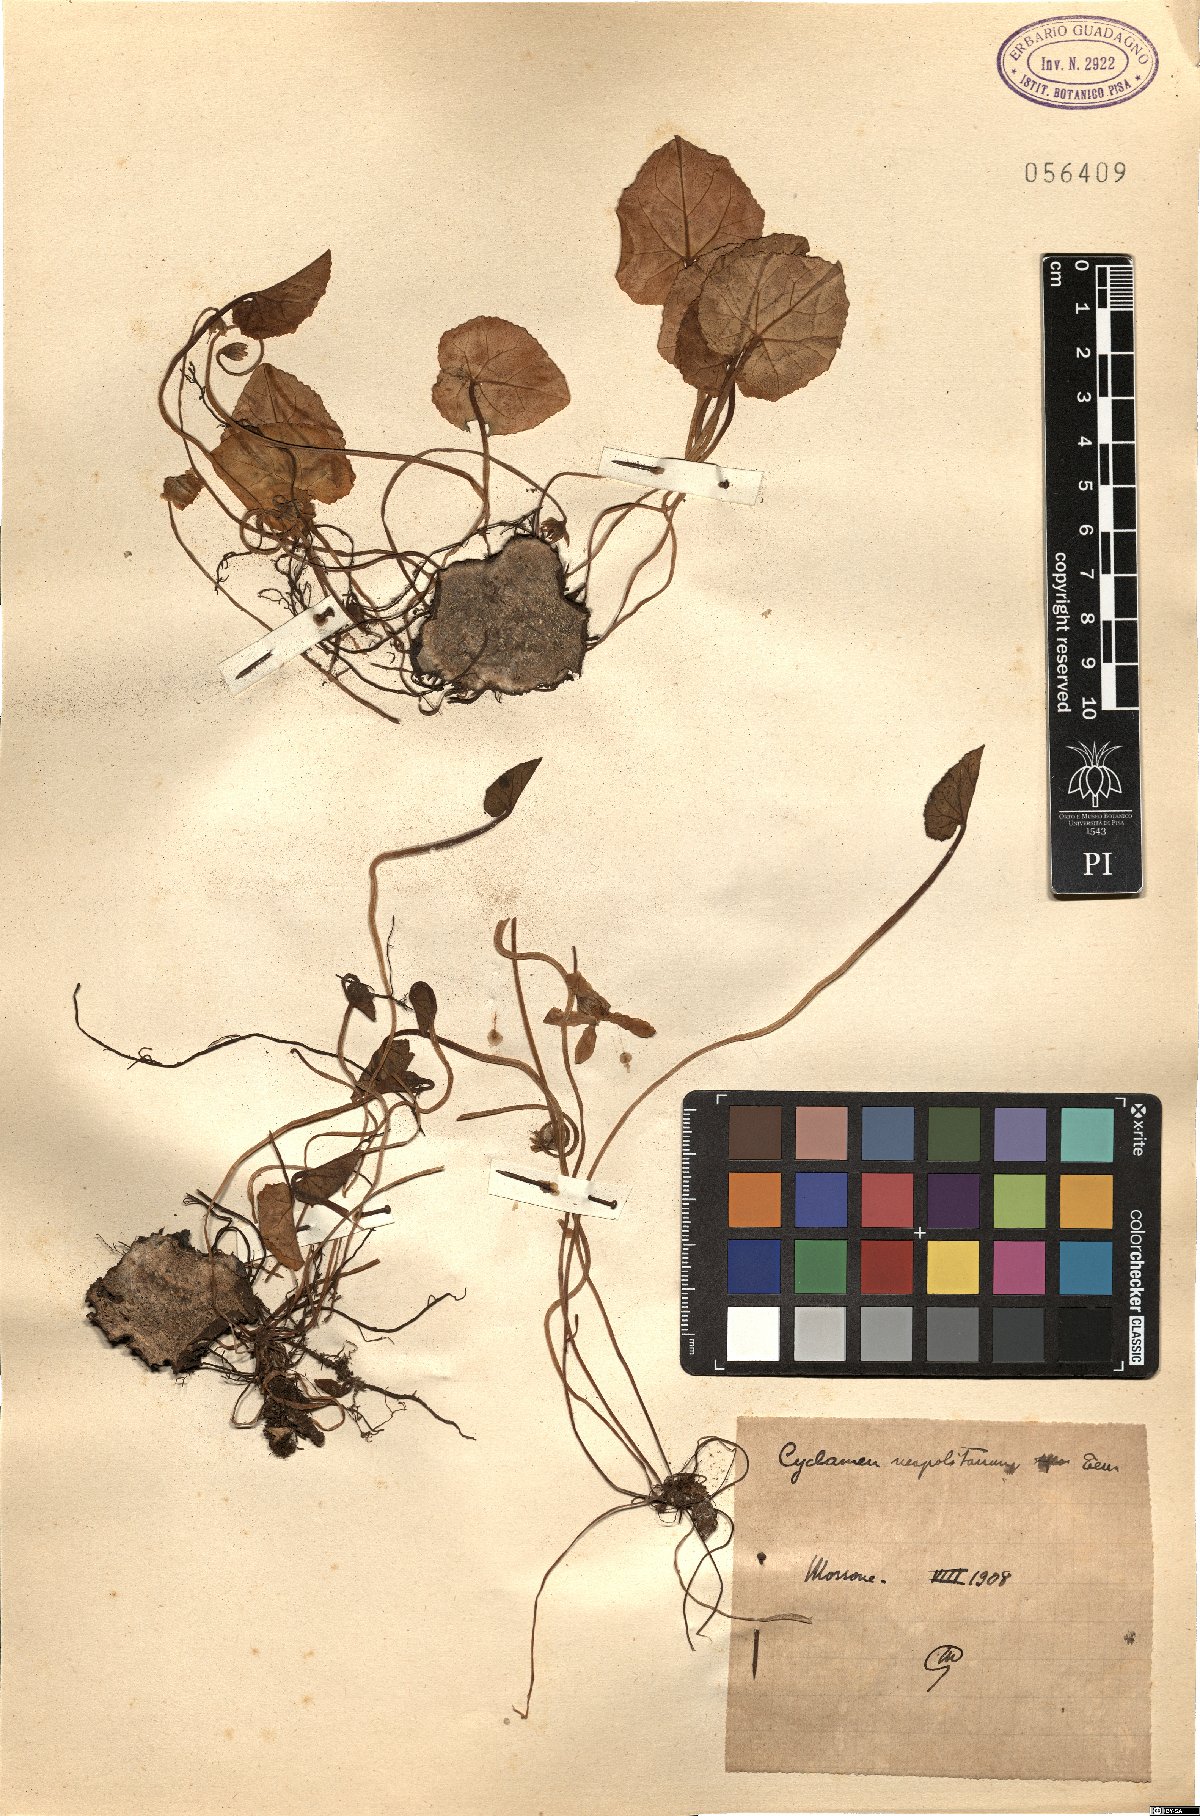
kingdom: Plantae
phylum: Tracheophyta
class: Magnoliopsida
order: Ericales
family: Primulaceae
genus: Cyclamen
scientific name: Cyclamen hederifolium
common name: Sowbread
